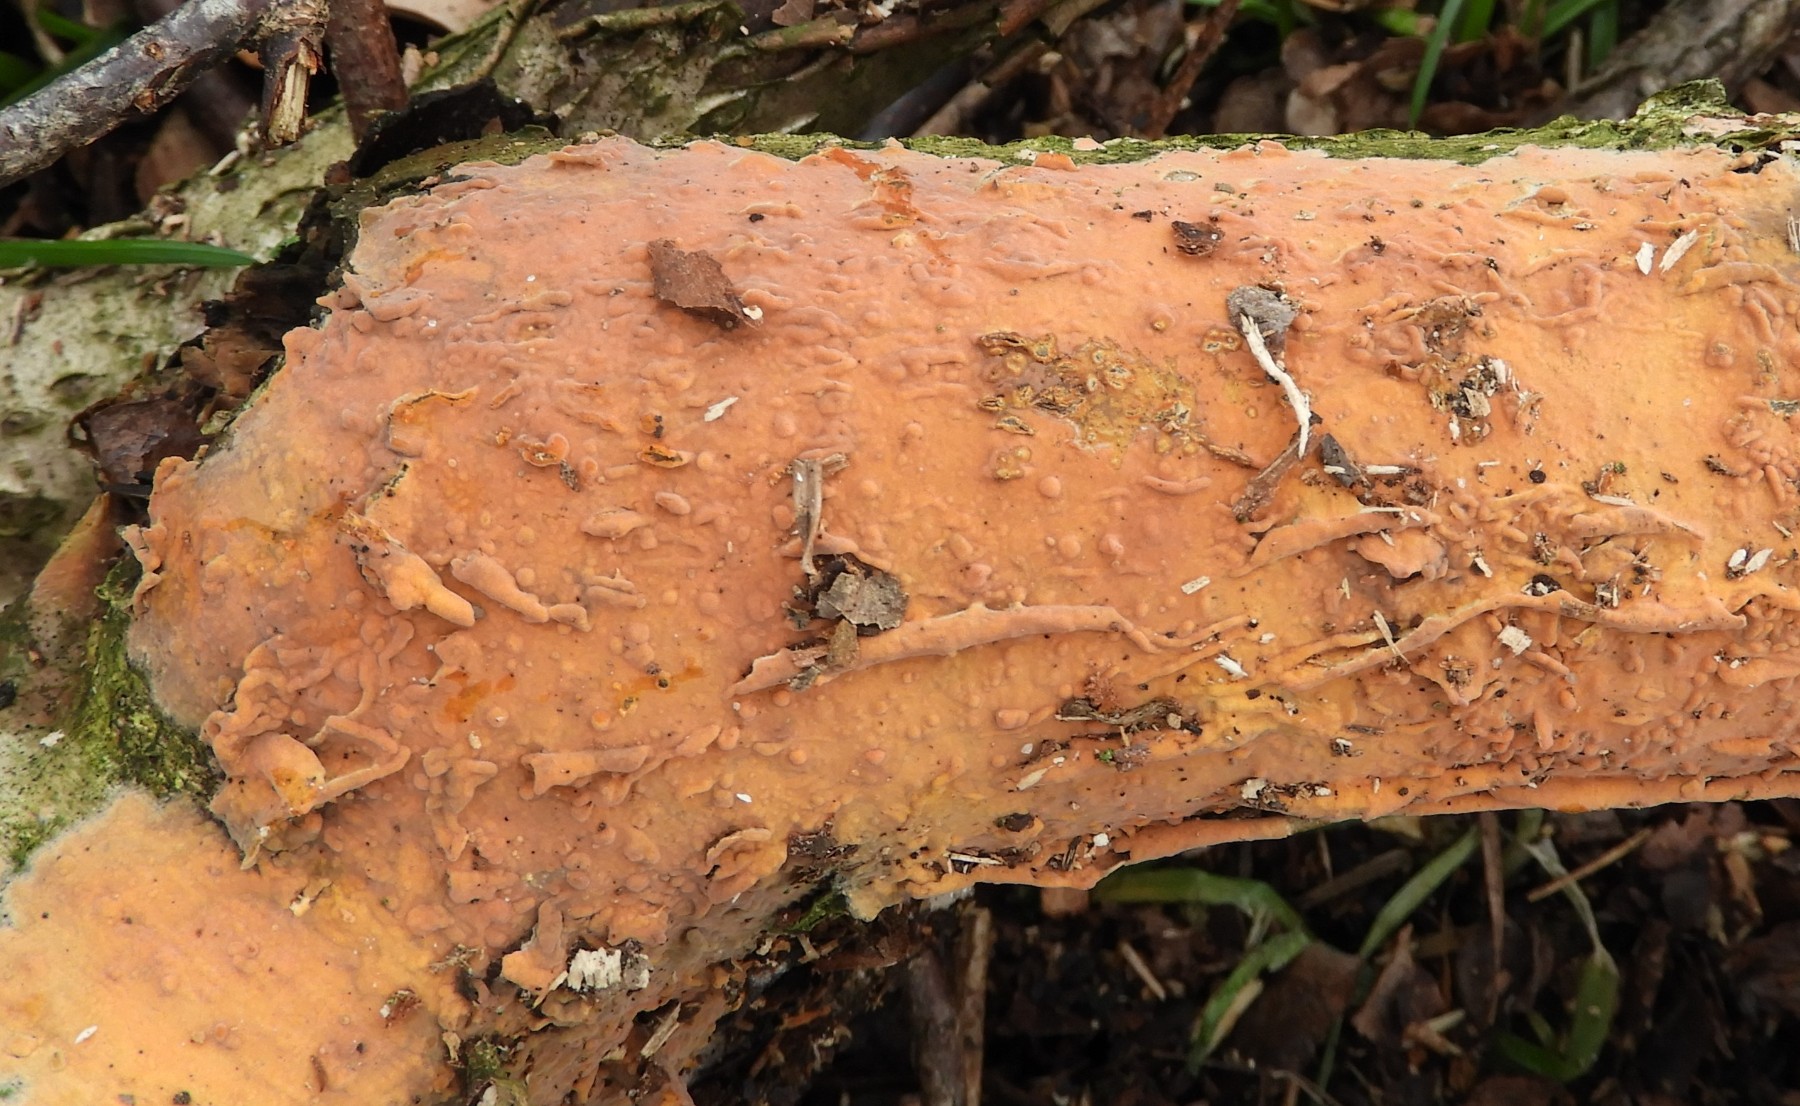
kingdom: Fungi
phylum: Basidiomycota
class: Agaricomycetes
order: Russulales
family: Peniophoraceae
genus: Peniophora
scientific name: Peniophora incarnata
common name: laksefarvet voksskind
